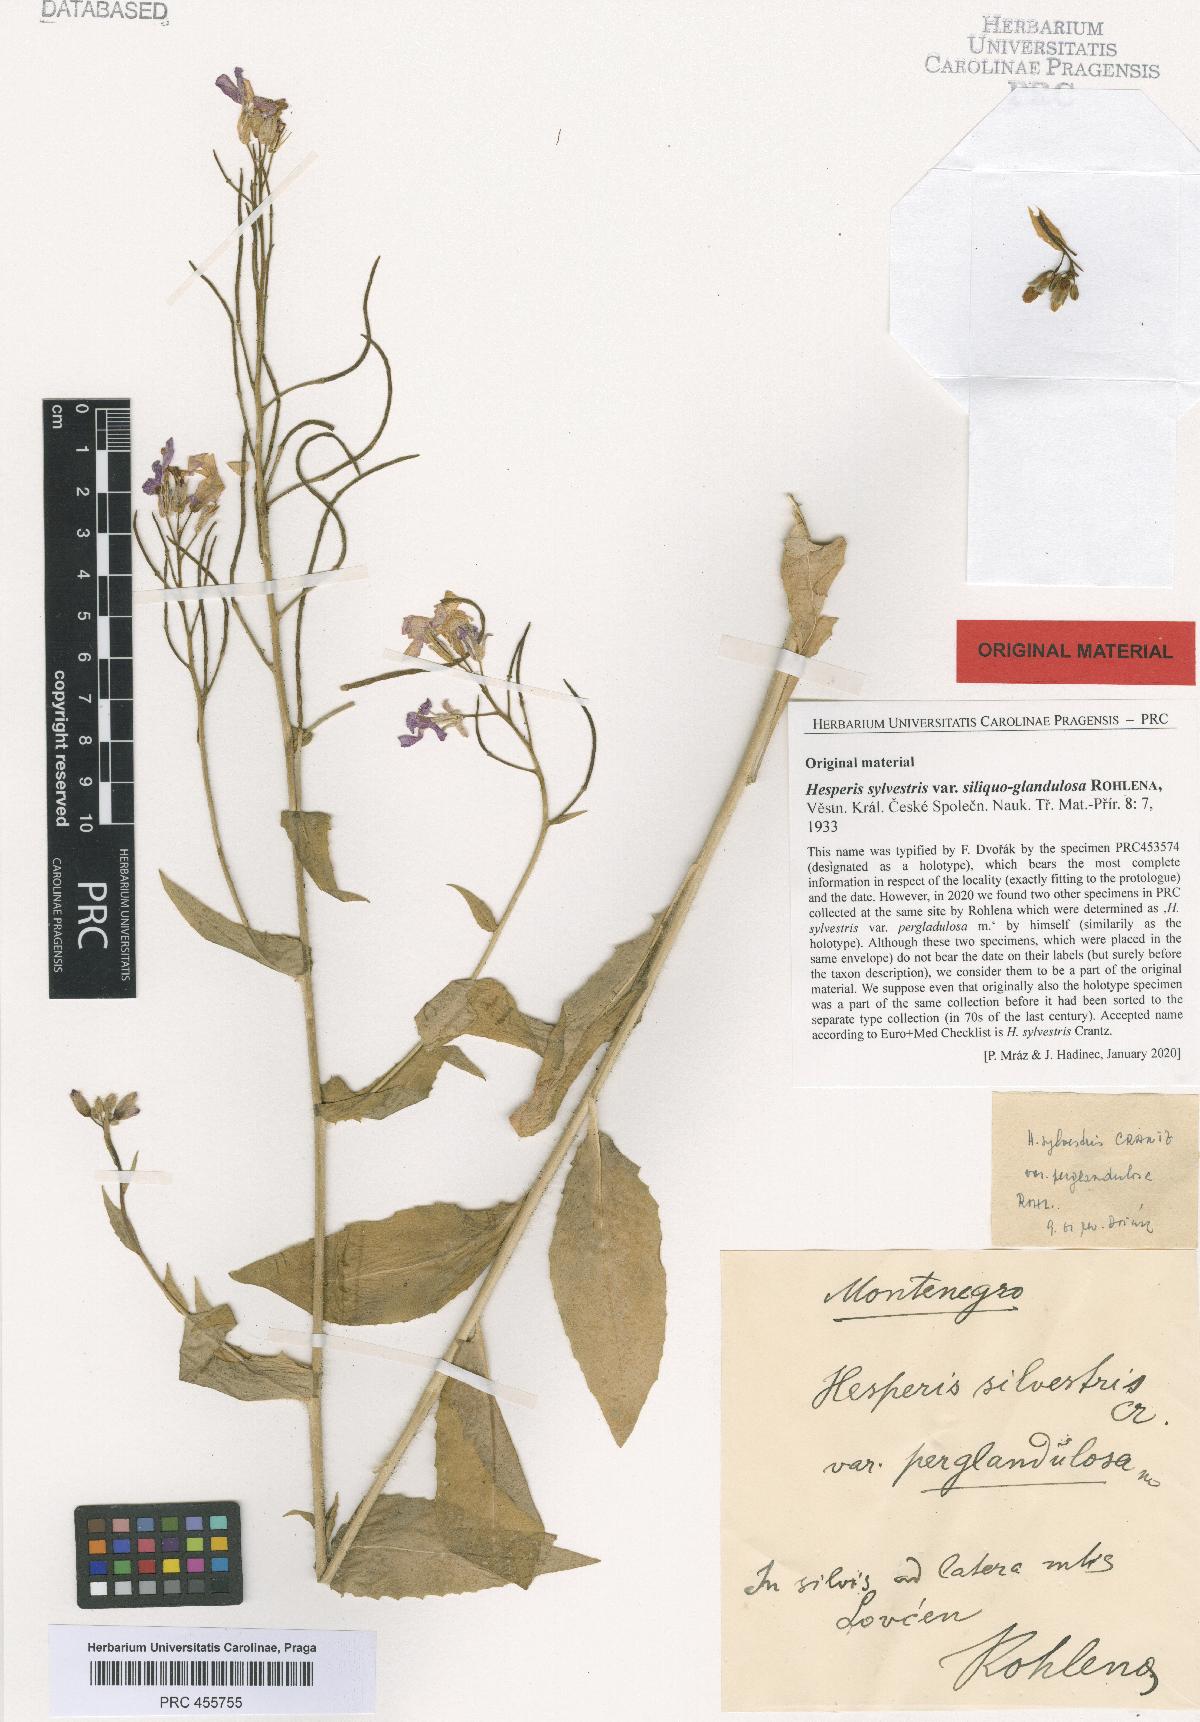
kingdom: Plantae
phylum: Tracheophyta
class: Magnoliopsida
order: Brassicales
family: Brassicaceae
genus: Hesperis
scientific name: Hesperis sylvestris
